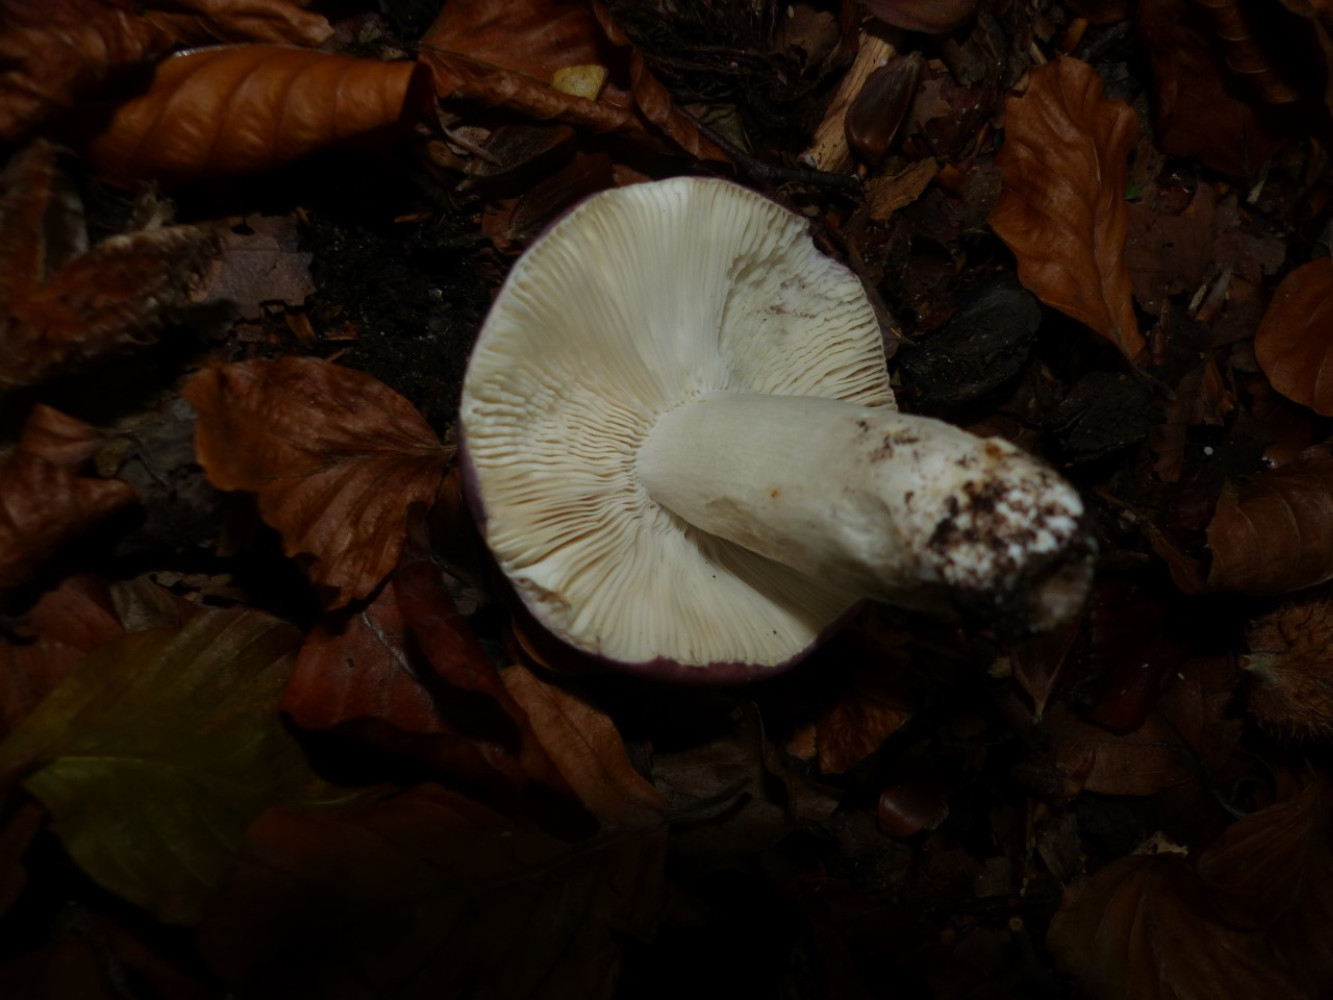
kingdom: Fungi
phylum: Basidiomycota
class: Agaricomycetes
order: Russulales
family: Russulaceae
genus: Russula
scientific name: Russula brunneoviolacea
